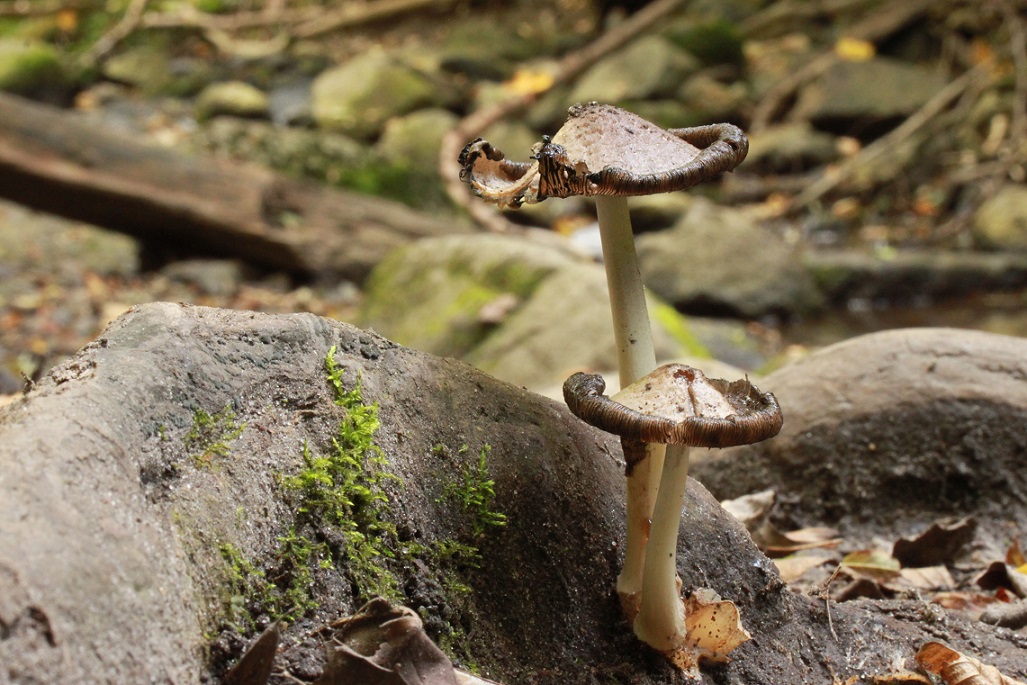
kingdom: Fungi
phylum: Basidiomycota
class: Agaricomycetes
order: Agaricales
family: Psathyrellaceae
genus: Coprinopsis
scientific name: Coprinopsis romagnesiana
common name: brunskællet blækhat
